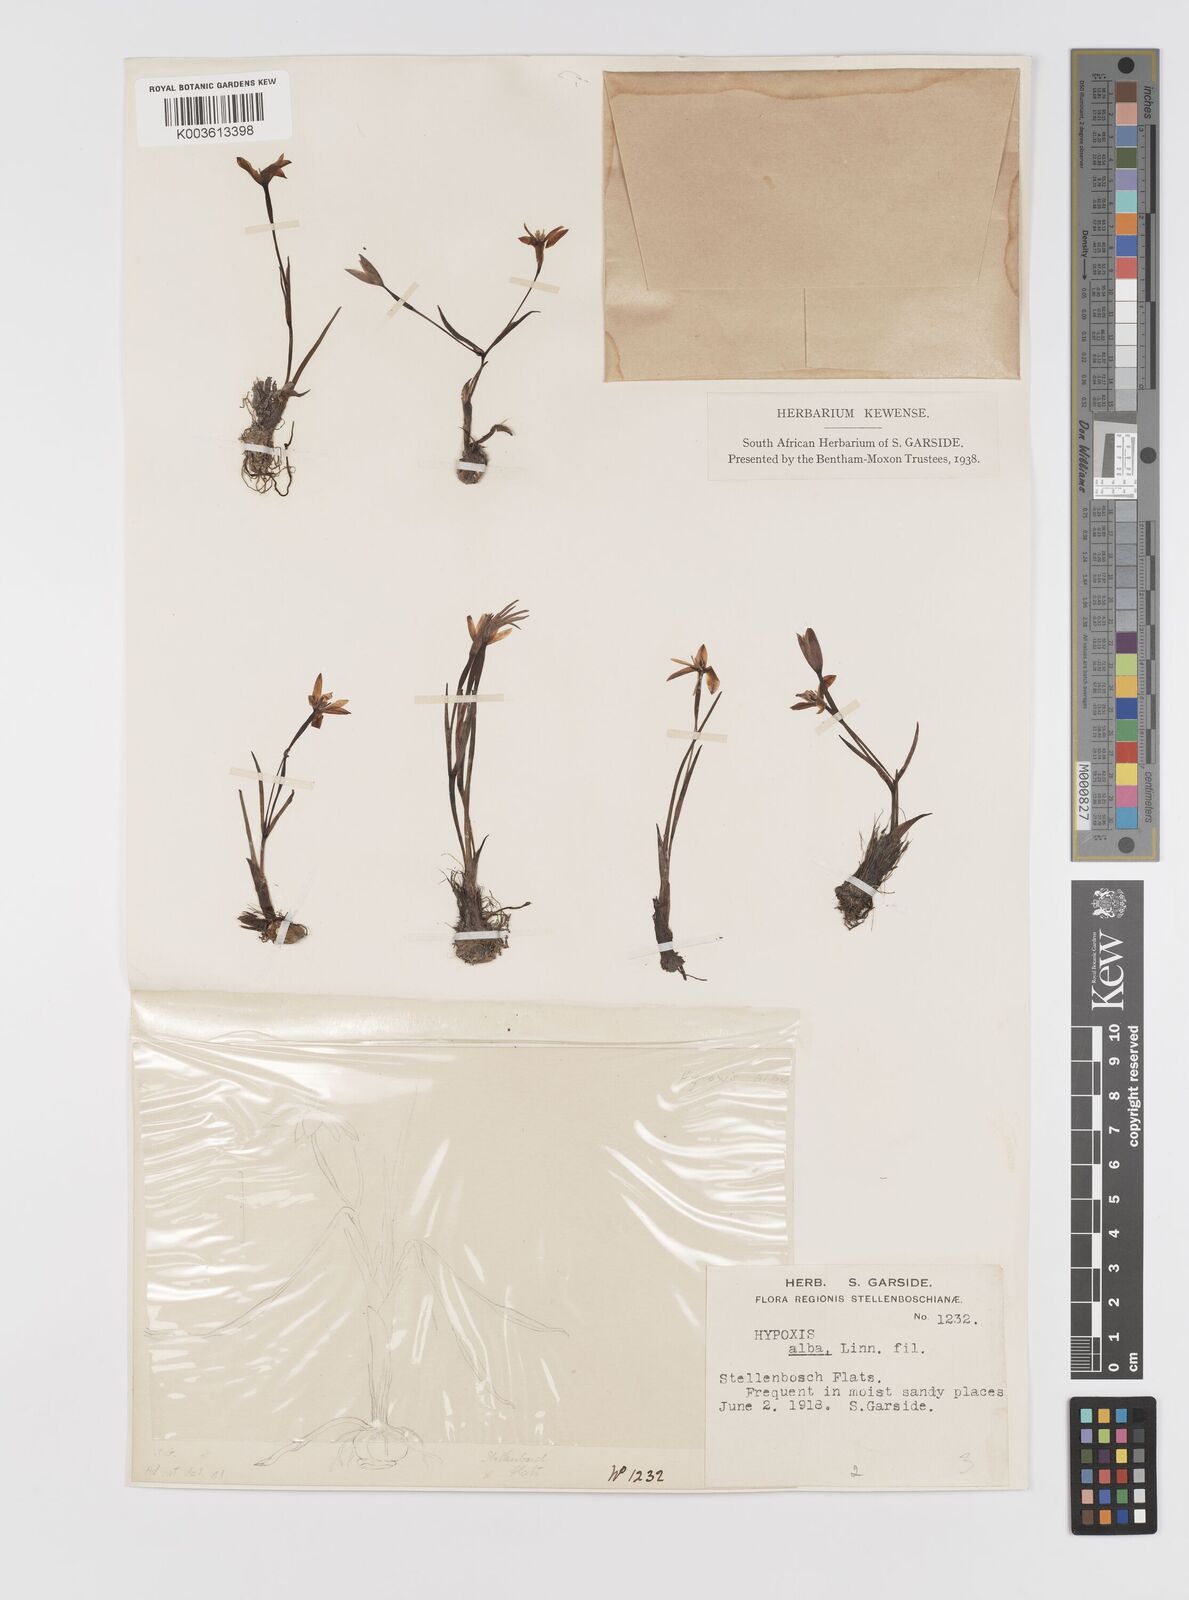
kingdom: Plantae
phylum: Tracheophyta
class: Liliopsida
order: Asparagales
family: Hypoxidaceae
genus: Pauridia
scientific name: Pauridia alba
